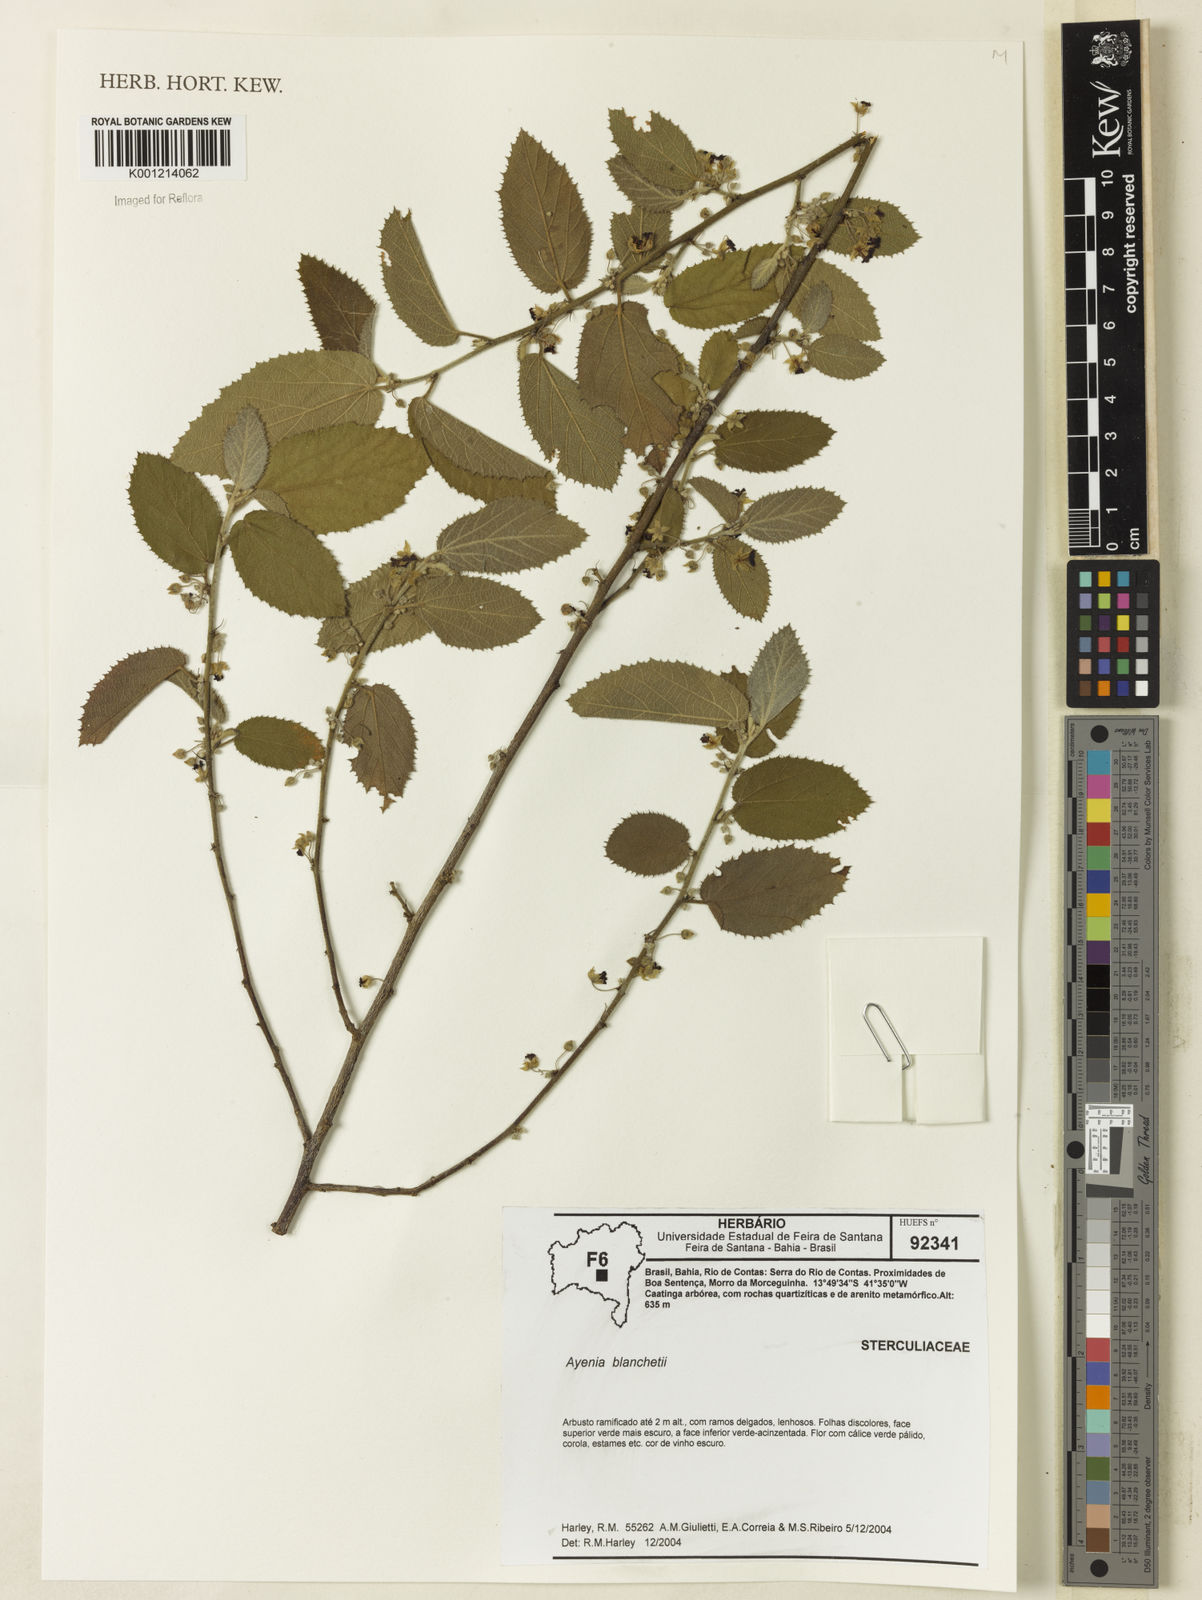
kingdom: Plantae
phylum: Tracheophyta
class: Magnoliopsida
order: Malvales
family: Malvaceae
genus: Ayenia
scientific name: Ayenia blanchetiana
